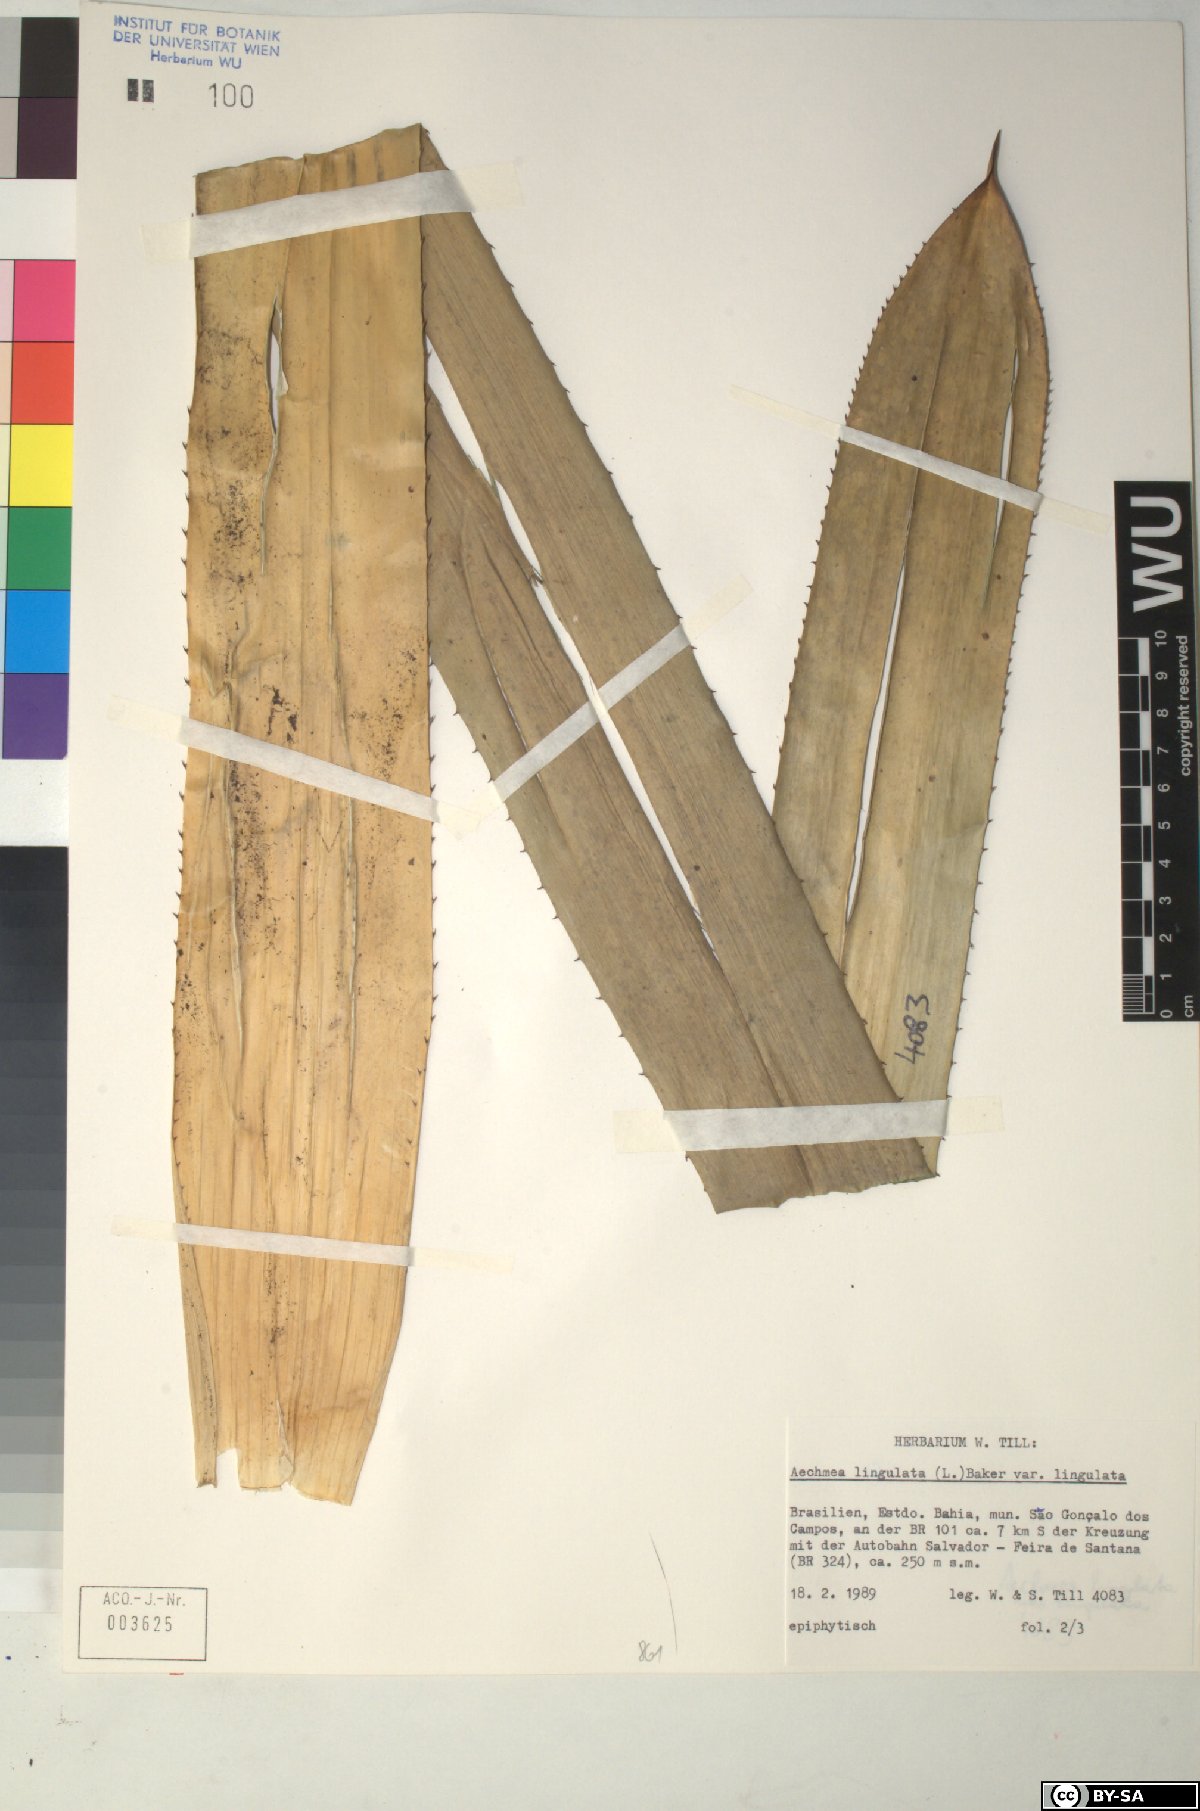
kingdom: Plantae
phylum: Tracheophyta
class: Liliopsida
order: Poales
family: Bromeliaceae
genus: Aechmea
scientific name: Aechmea
